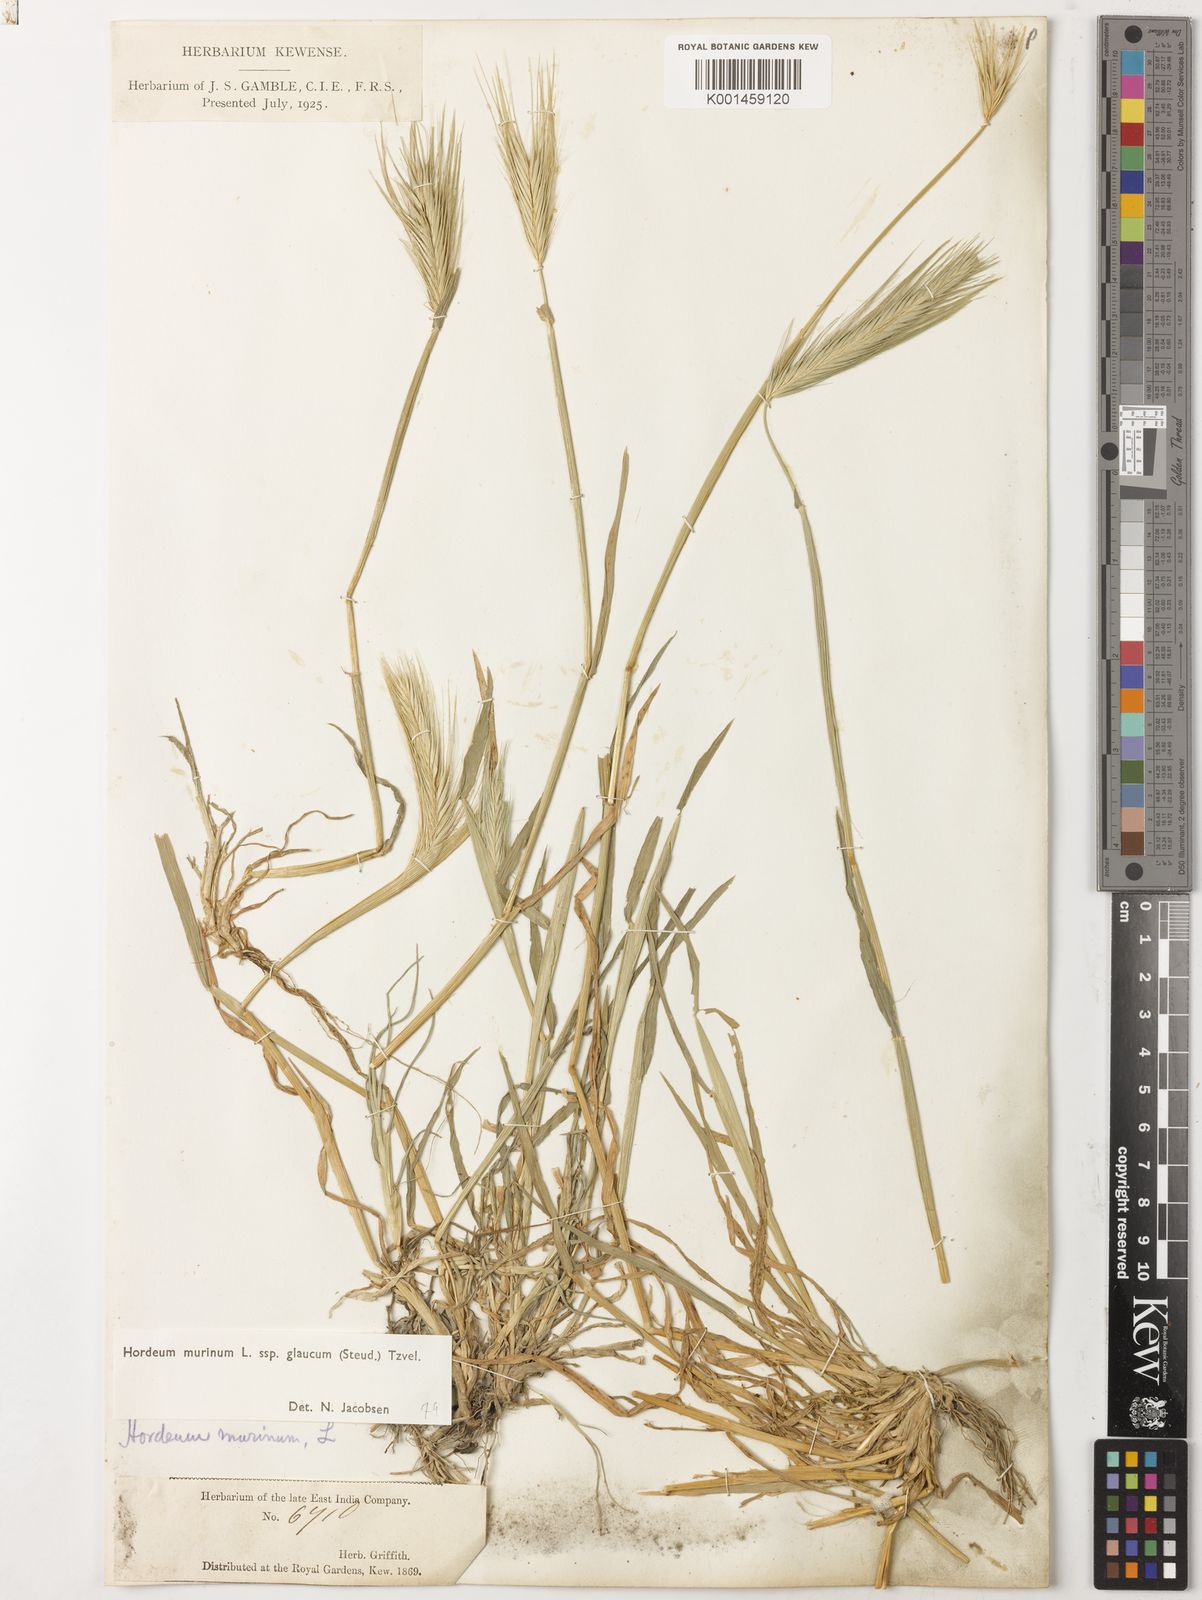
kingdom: Plantae
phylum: Tracheophyta
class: Liliopsida
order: Poales
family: Poaceae
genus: Hordeum
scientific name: Hordeum murinum
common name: Wall barley
